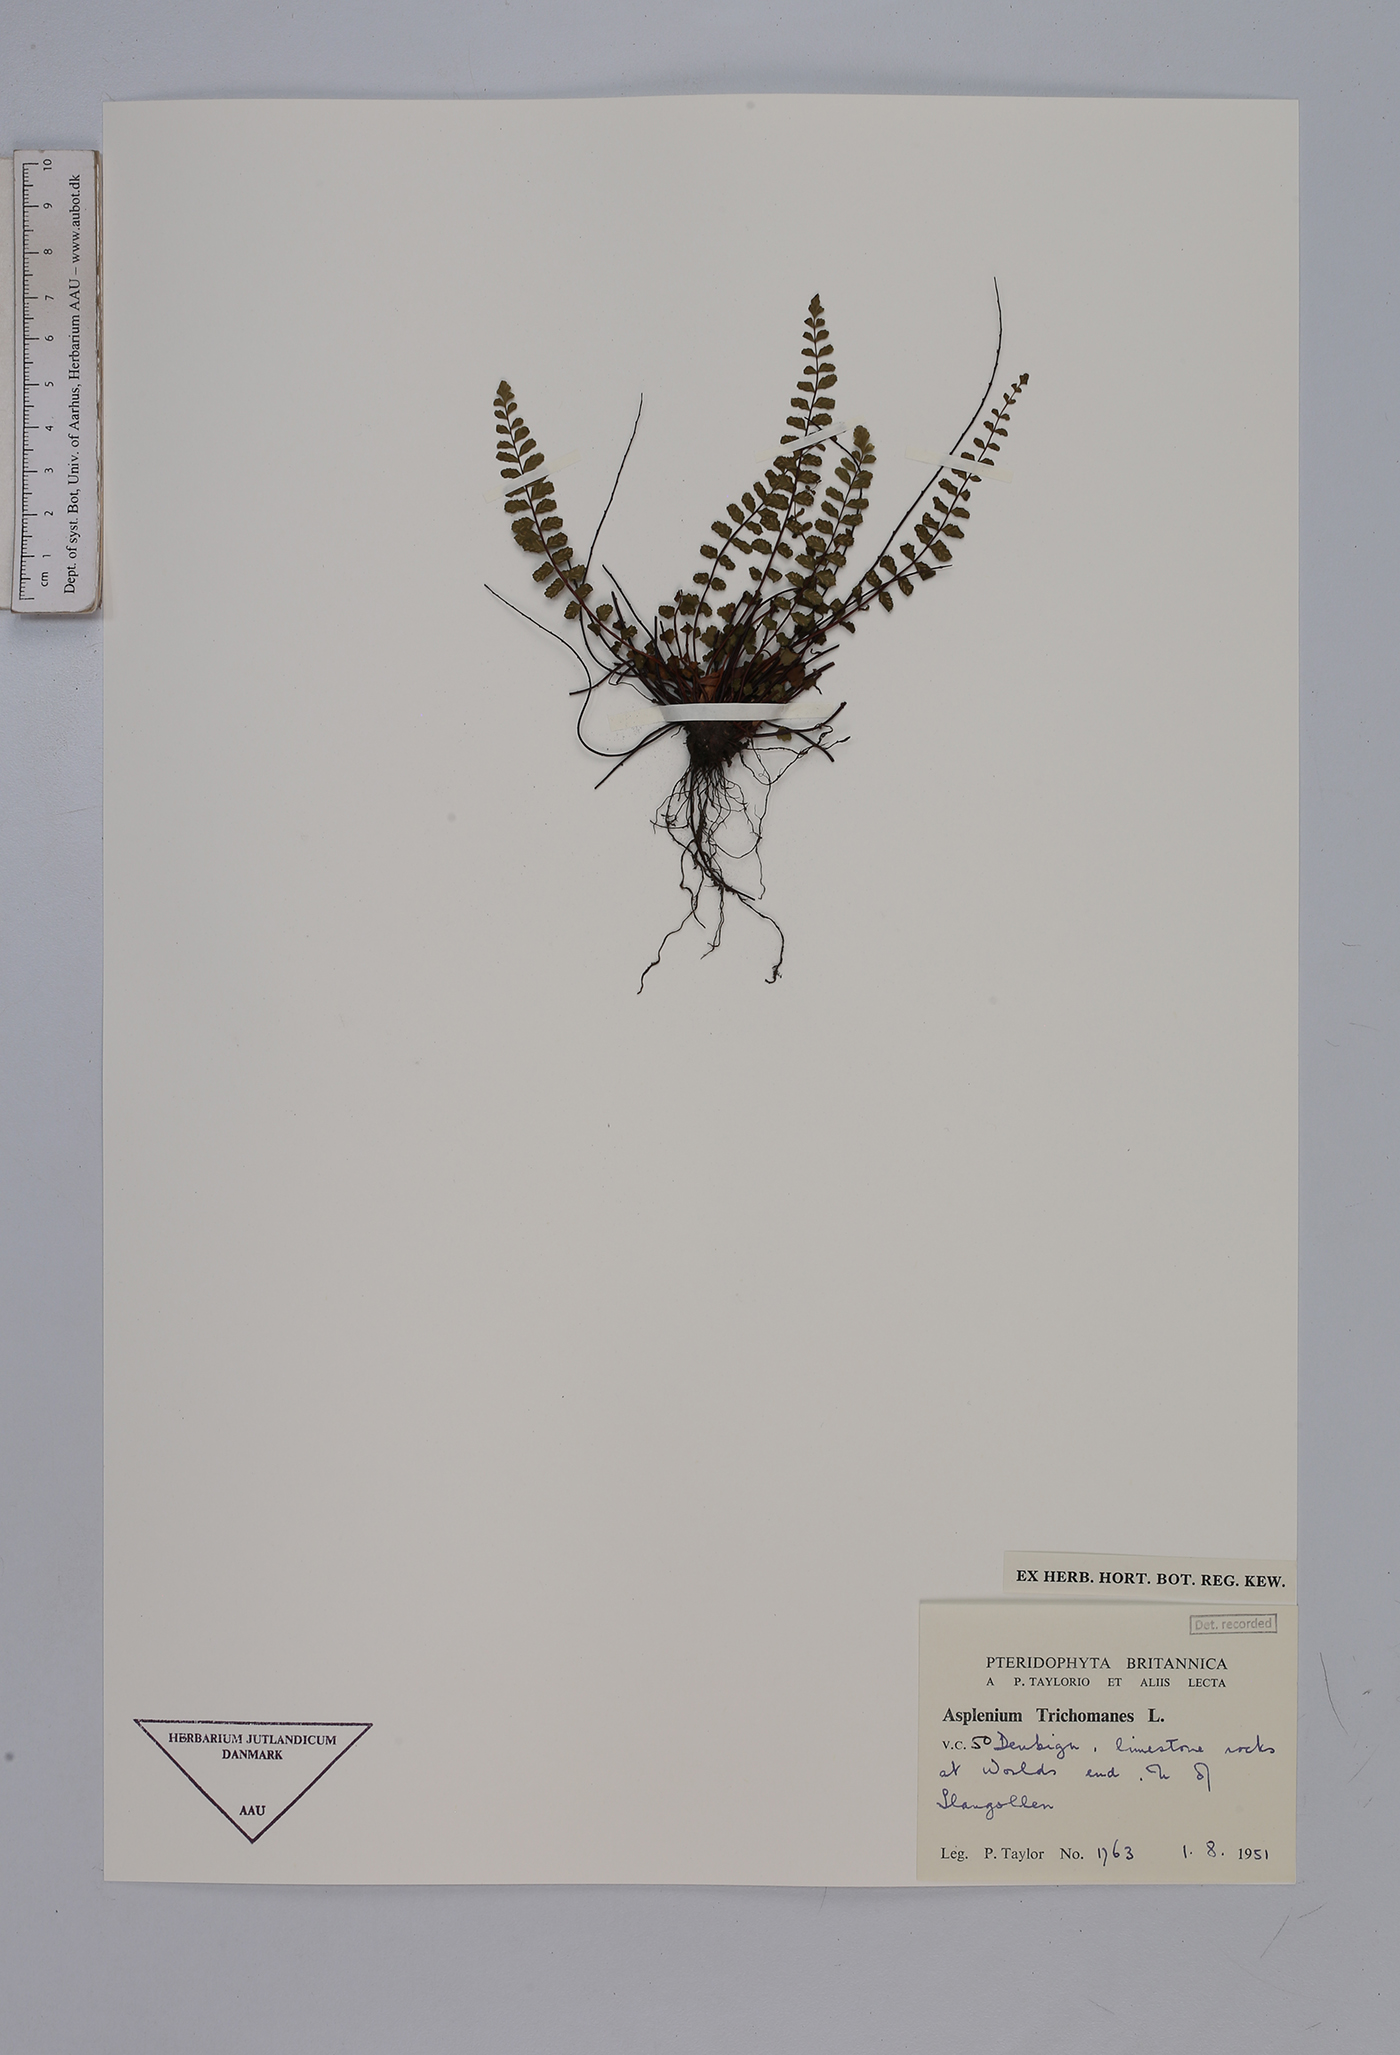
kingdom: Plantae
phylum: Tracheophyta
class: Polypodiopsida
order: Polypodiales
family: Aspleniaceae
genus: Asplenium
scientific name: Asplenium trichomanes
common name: Maidenhair spleenwort
